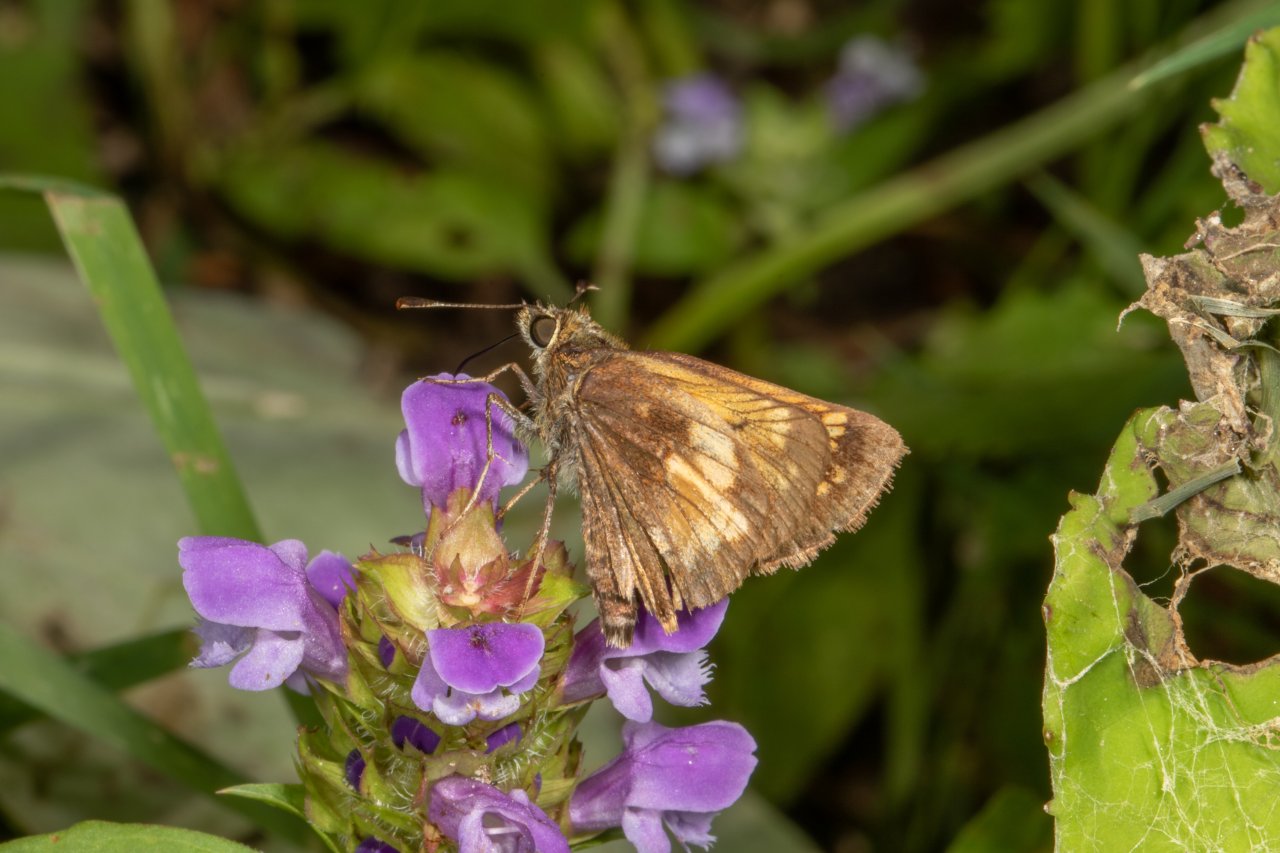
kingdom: Animalia
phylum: Arthropoda
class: Insecta
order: Lepidoptera
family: Hesperiidae
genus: Lon
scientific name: Lon hobomok
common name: Hobomok Skipper
